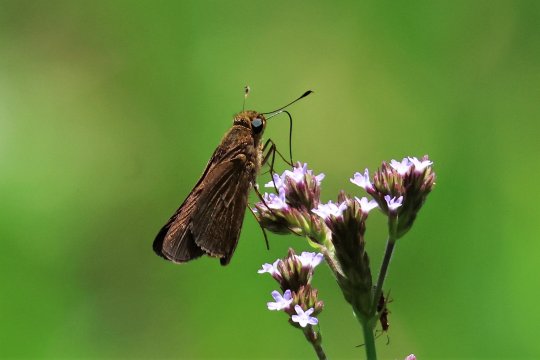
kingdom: Animalia
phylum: Arthropoda
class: Insecta
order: Lepidoptera
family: Hesperiidae
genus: Panoquina
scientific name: Panoquina ocola
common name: Ocola Skipper
